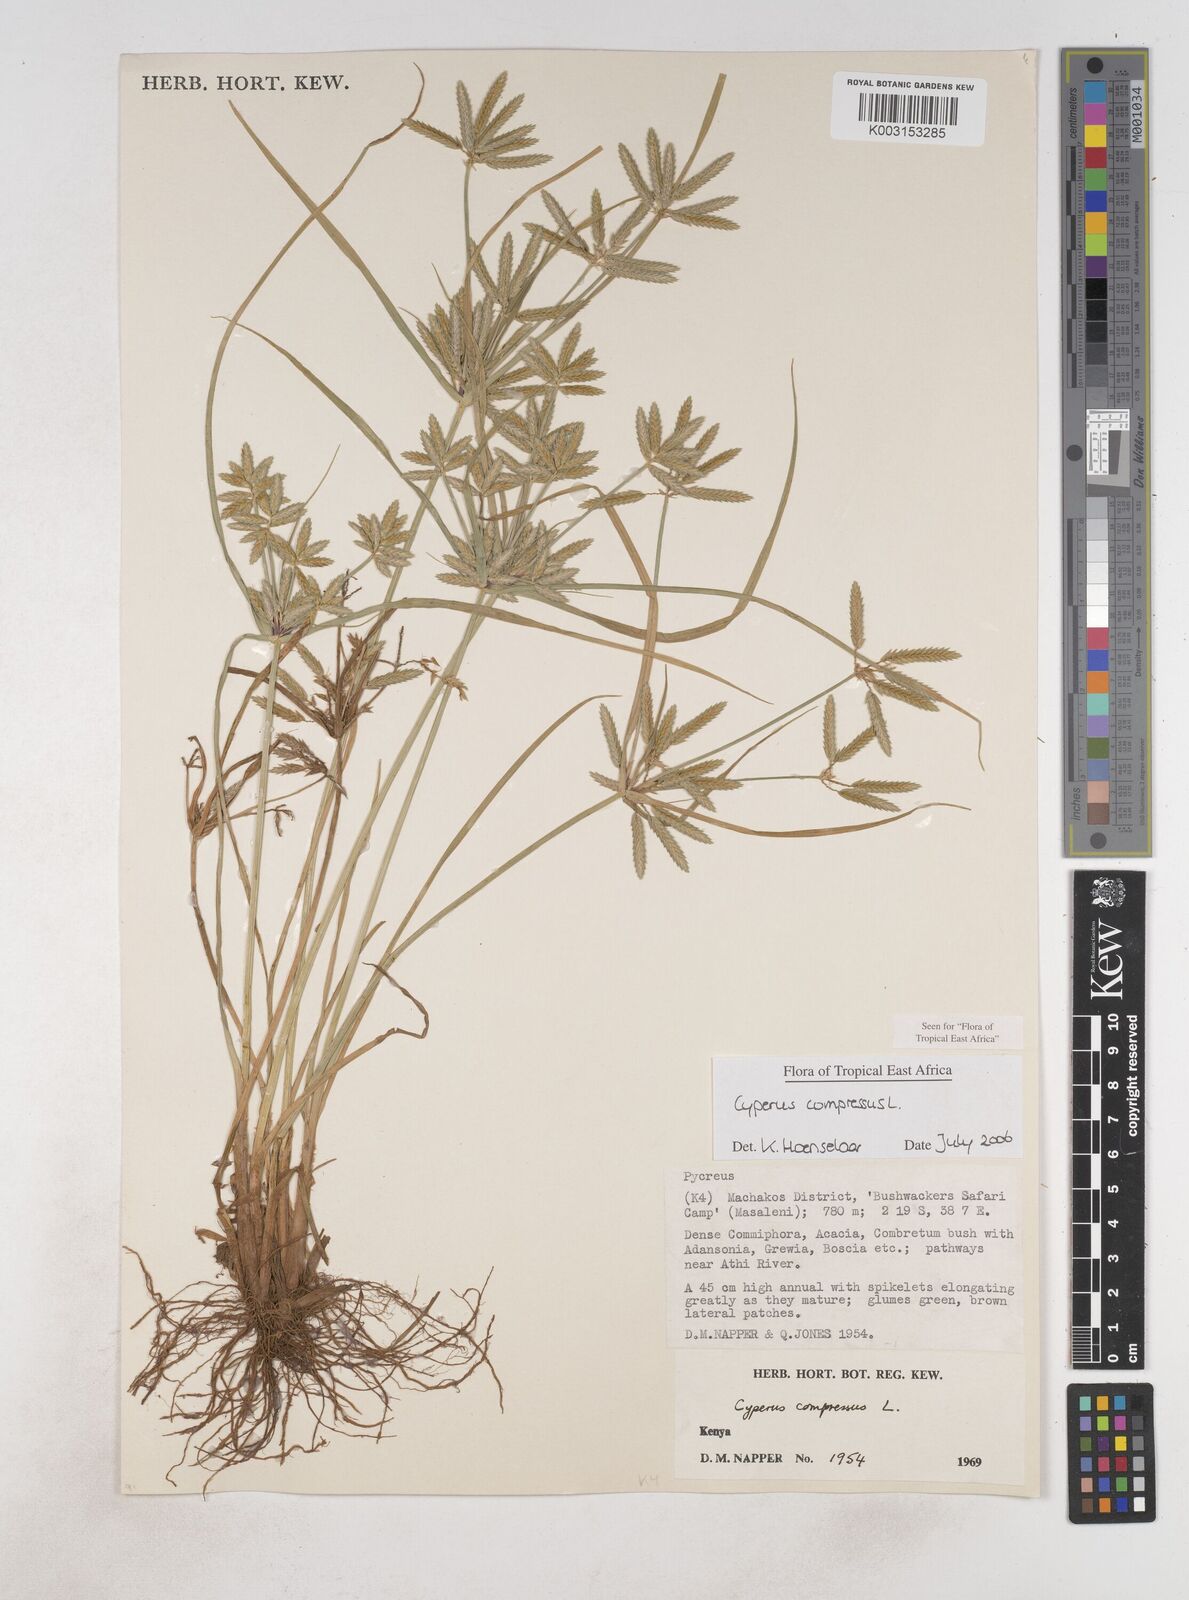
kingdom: Plantae
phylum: Tracheophyta
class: Liliopsida
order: Poales
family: Cyperaceae
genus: Cyperus
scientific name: Cyperus compressus
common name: Poorland flatsedge
